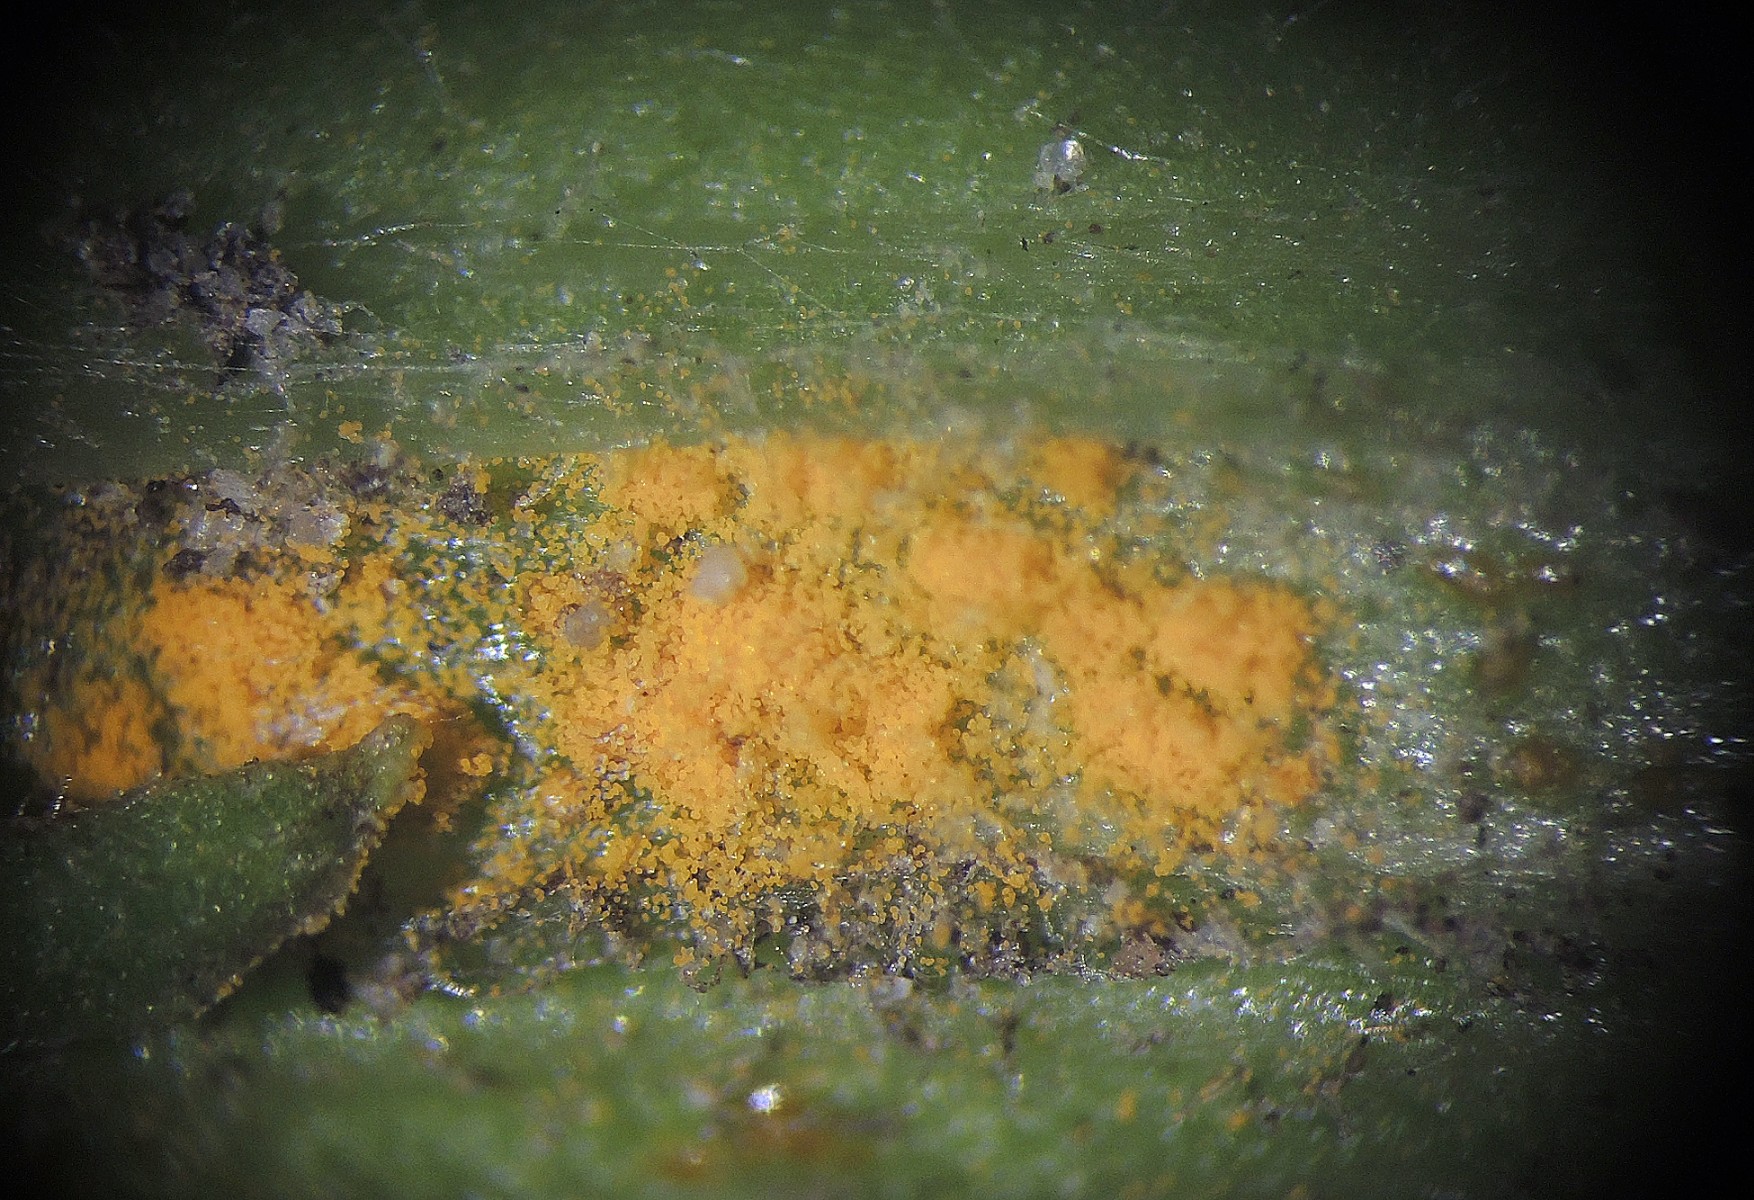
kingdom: Fungi
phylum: Basidiomycota
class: Pucciniomycetes
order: Pucciniales
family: Coleosporiaceae
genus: Coleosporium
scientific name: Coleosporium senecionis
